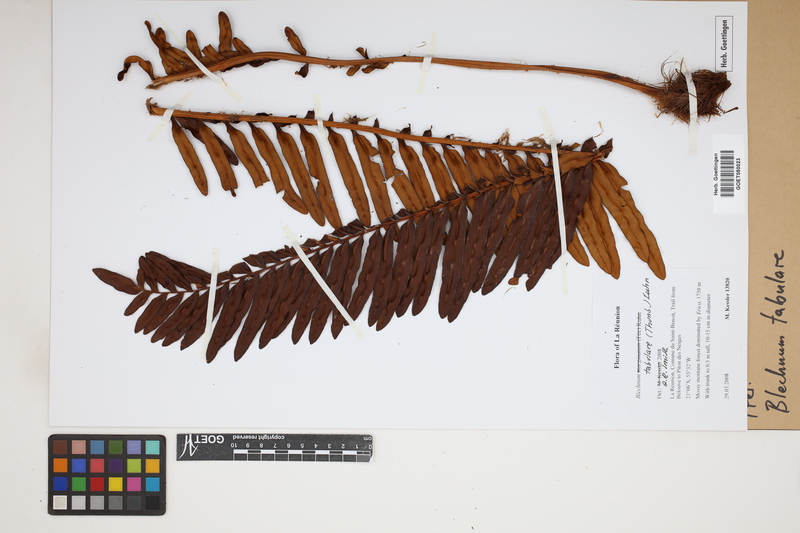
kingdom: Plantae
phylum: Tracheophyta
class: Polypodiopsida
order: Polypodiales
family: Blechnaceae
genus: Lomariocycas
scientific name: Lomariocycas tabularis
